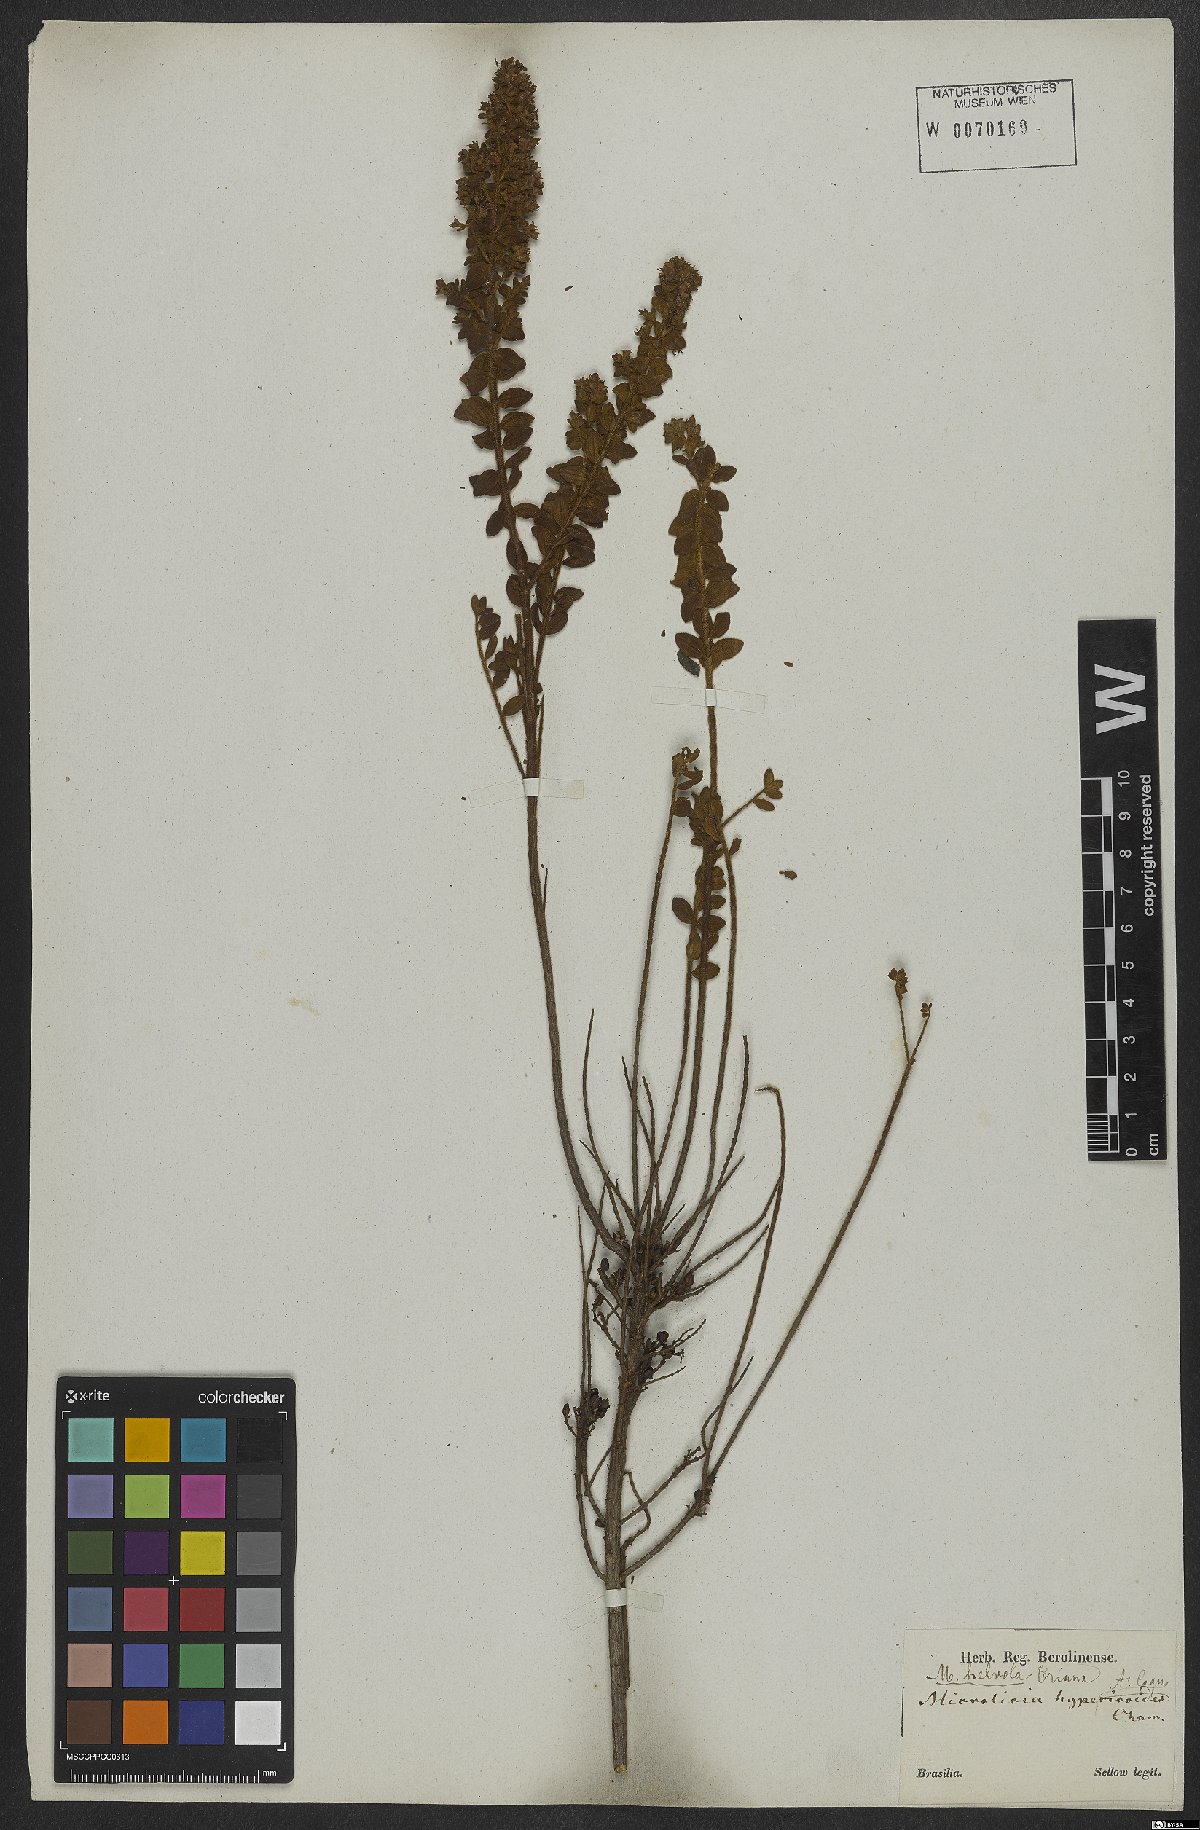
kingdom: Plantae
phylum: Tracheophyta
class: Magnoliopsida
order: Myrtales
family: Melastomataceae
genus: Microlicia
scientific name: Microlicia helvola
